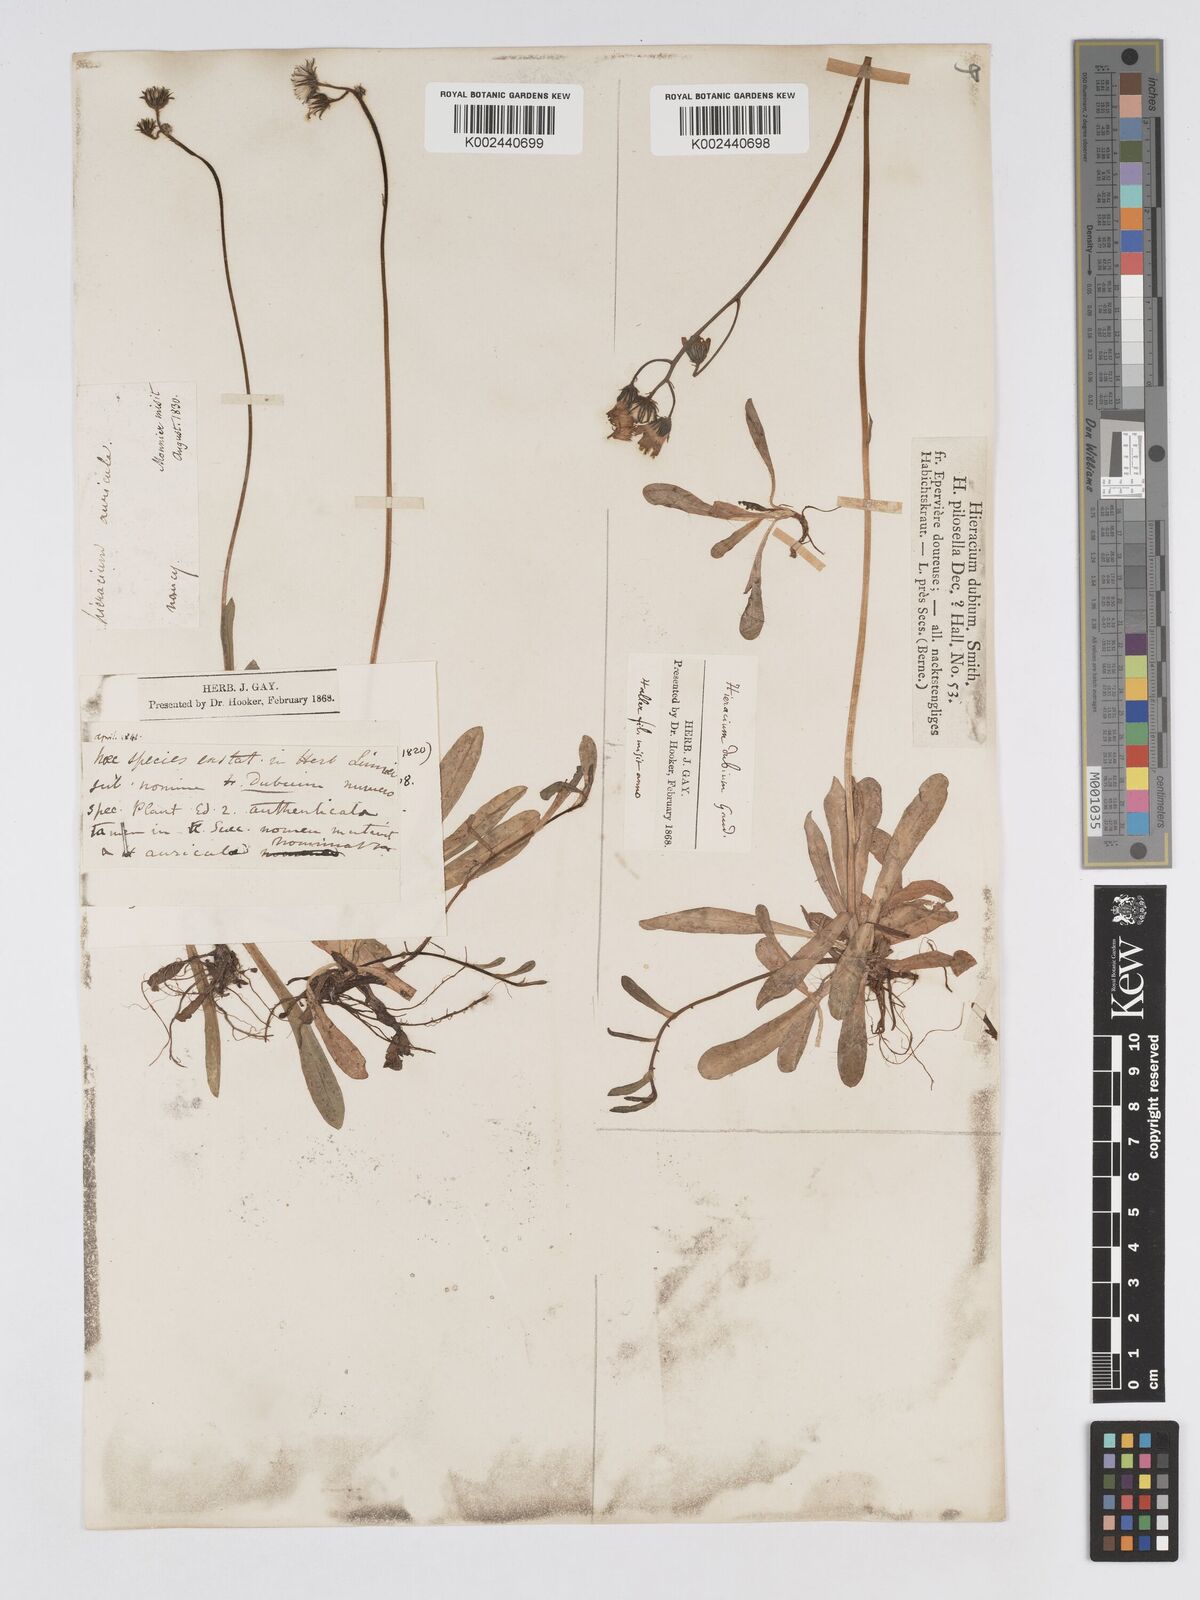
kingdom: Plantae
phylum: Tracheophyta
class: Magnoliopsida
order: Asterales
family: Asteraceae
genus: Pilosella
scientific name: Pilosella floribunda
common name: Glaucous hawkweed
